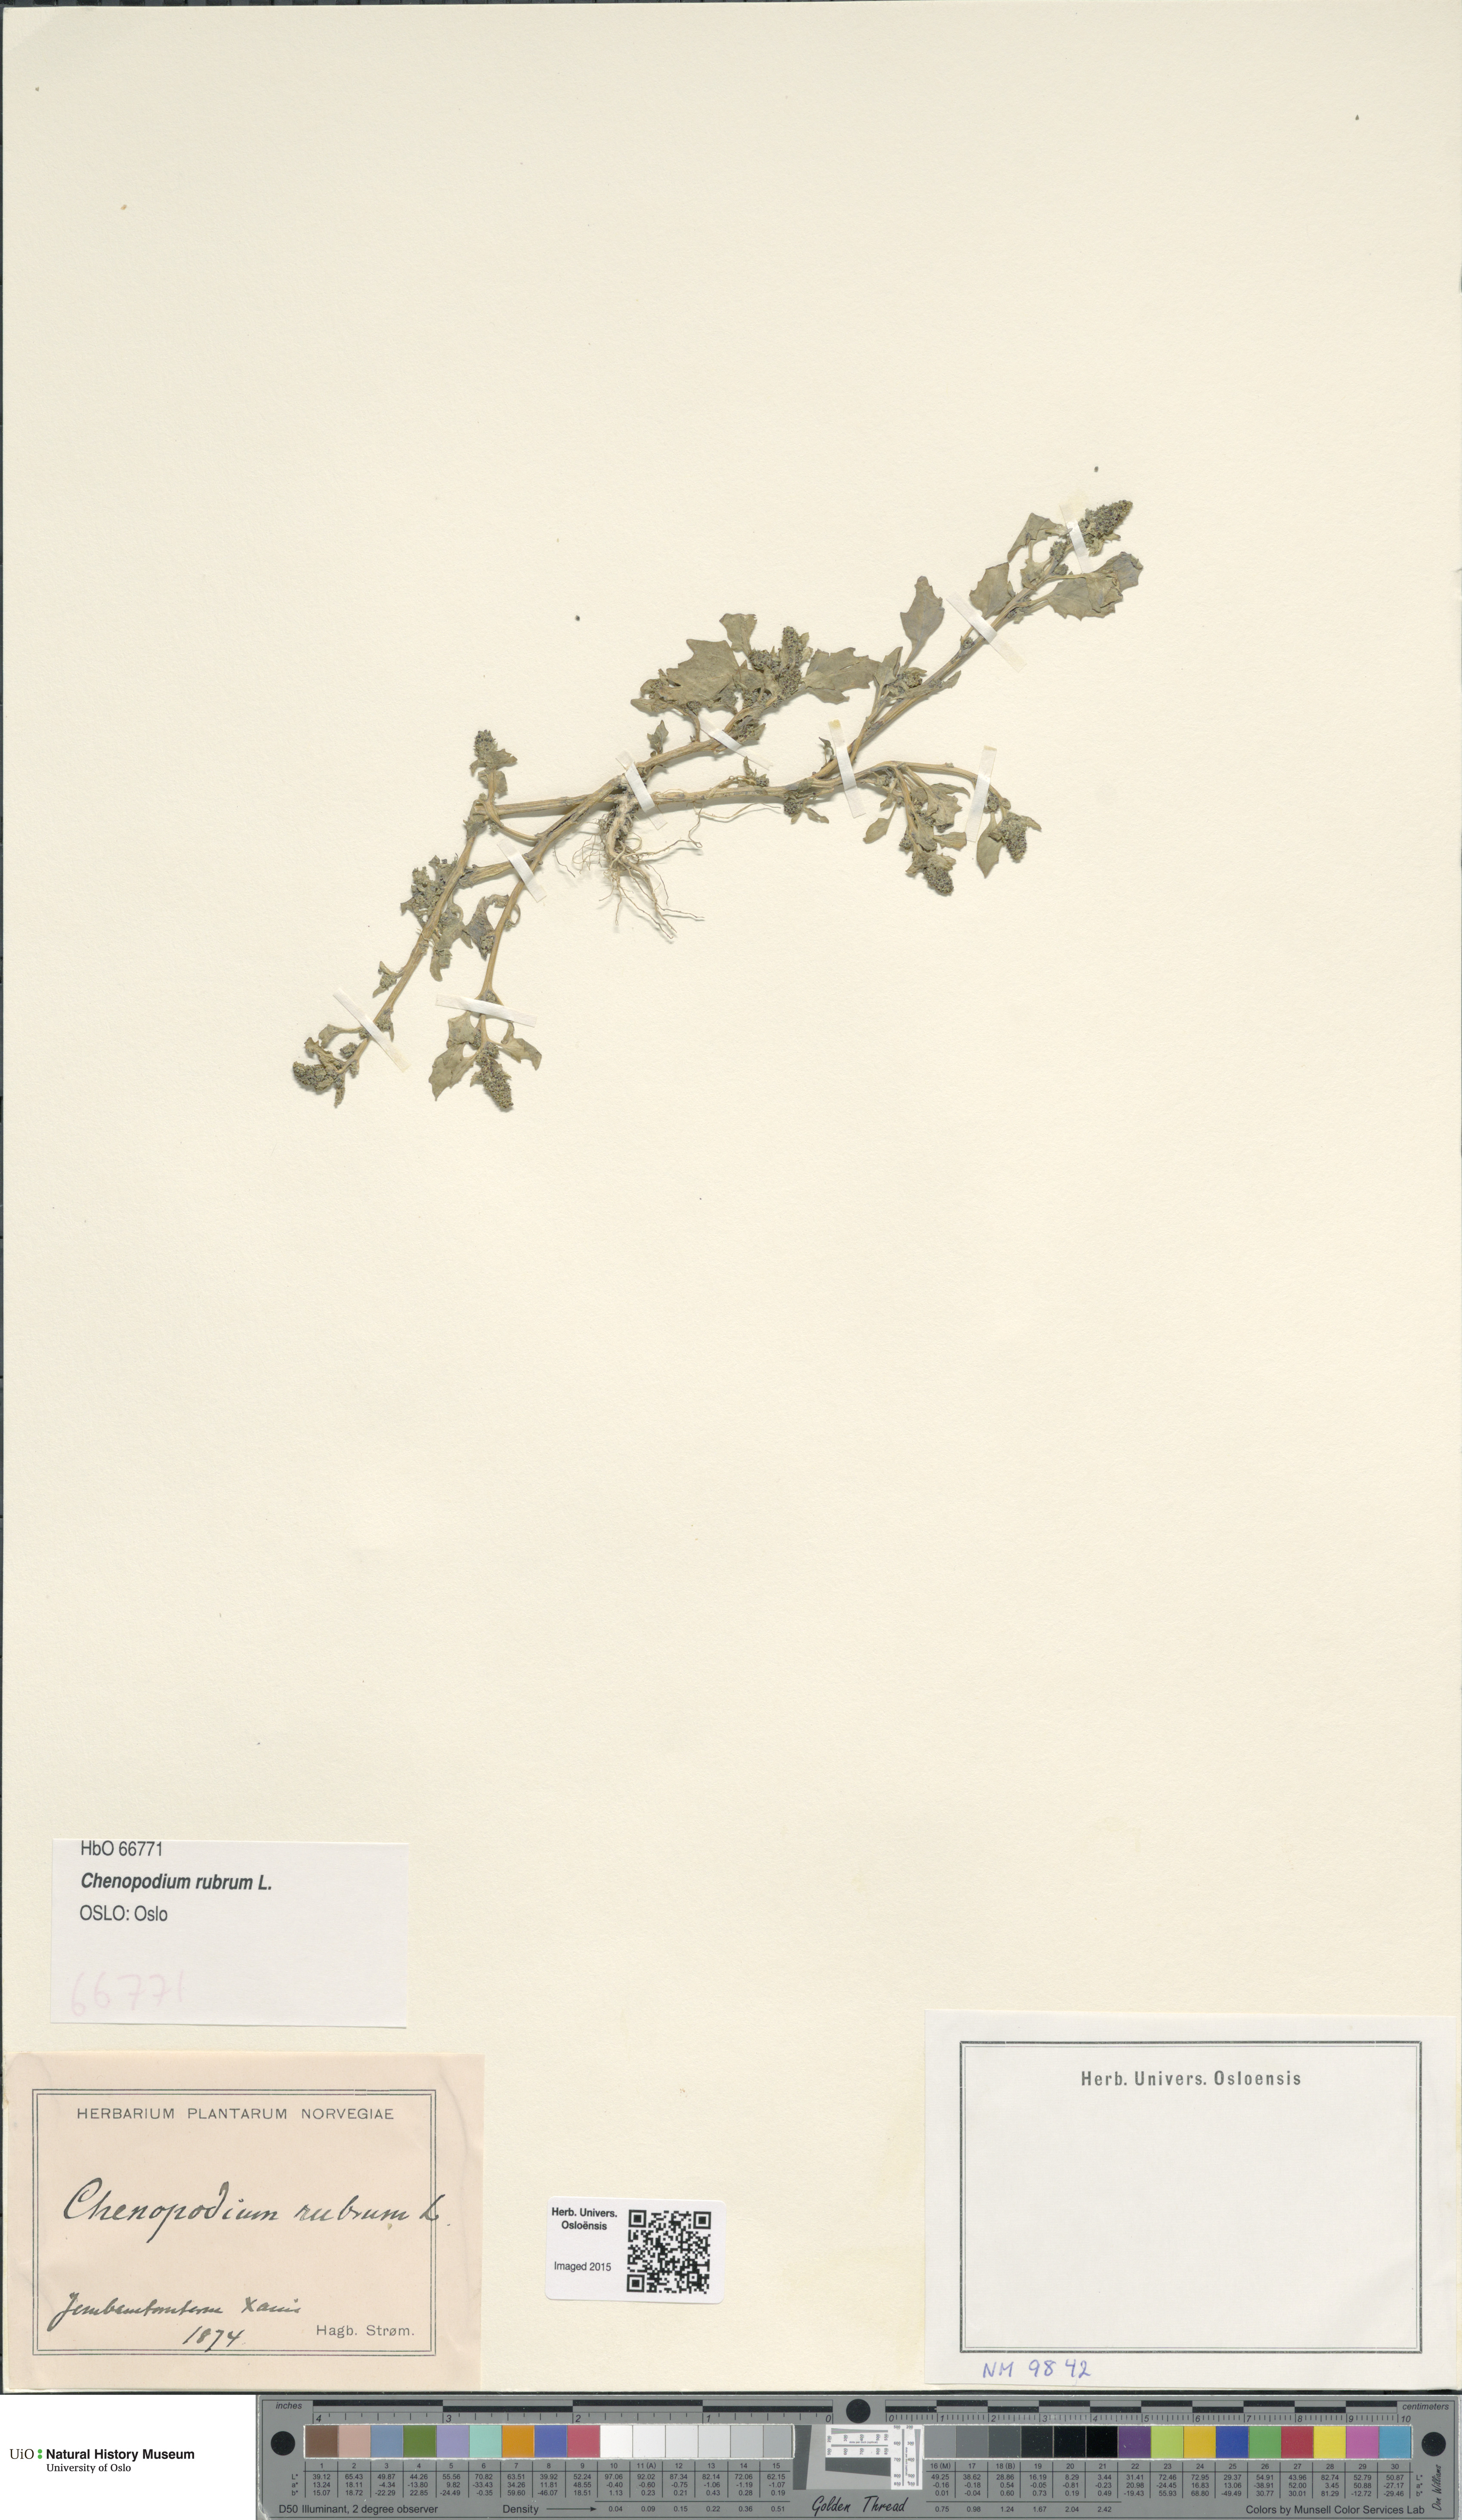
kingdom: Plantae
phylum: Tracheophyta
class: Magnoliopsida
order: Caryophyllales
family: Amaranthaceae
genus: Oxybasis
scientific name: Oxybasis rubra
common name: Red goosefoot
